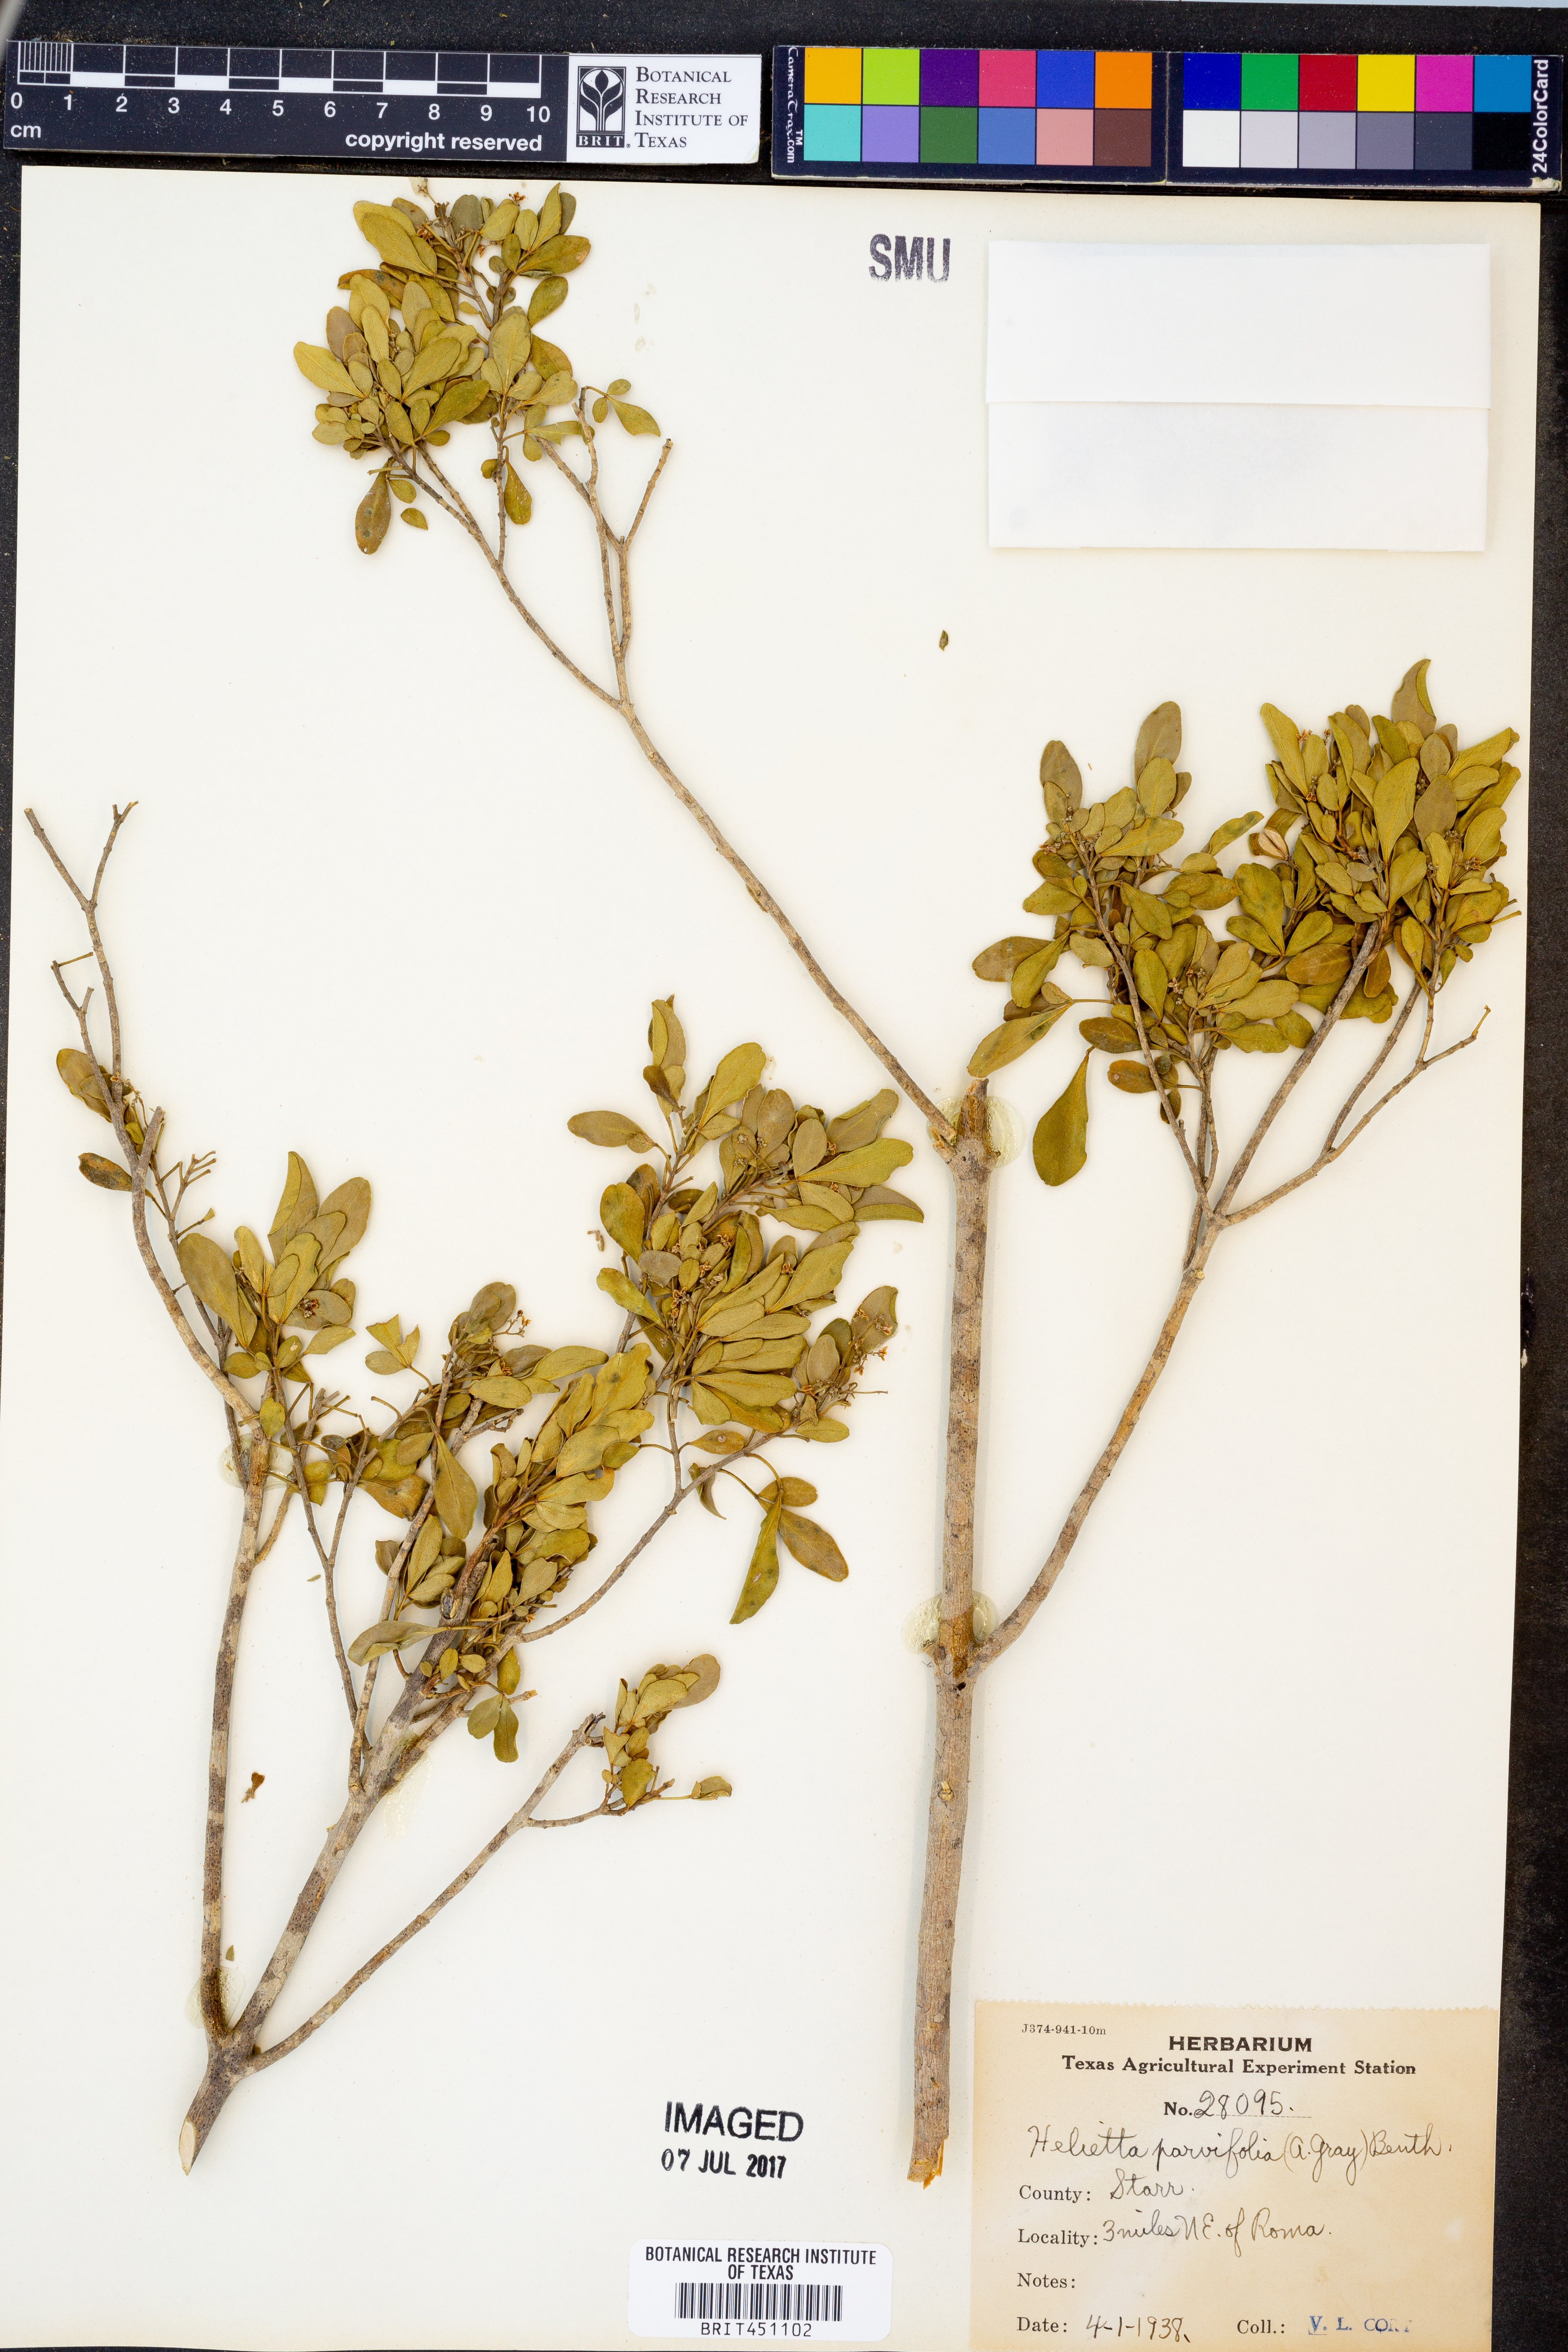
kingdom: Plantae
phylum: Tracheophyta
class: Magnoliopsida
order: Sapindales
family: Rutaceae
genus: Helietta
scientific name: Helietta parvifolia
